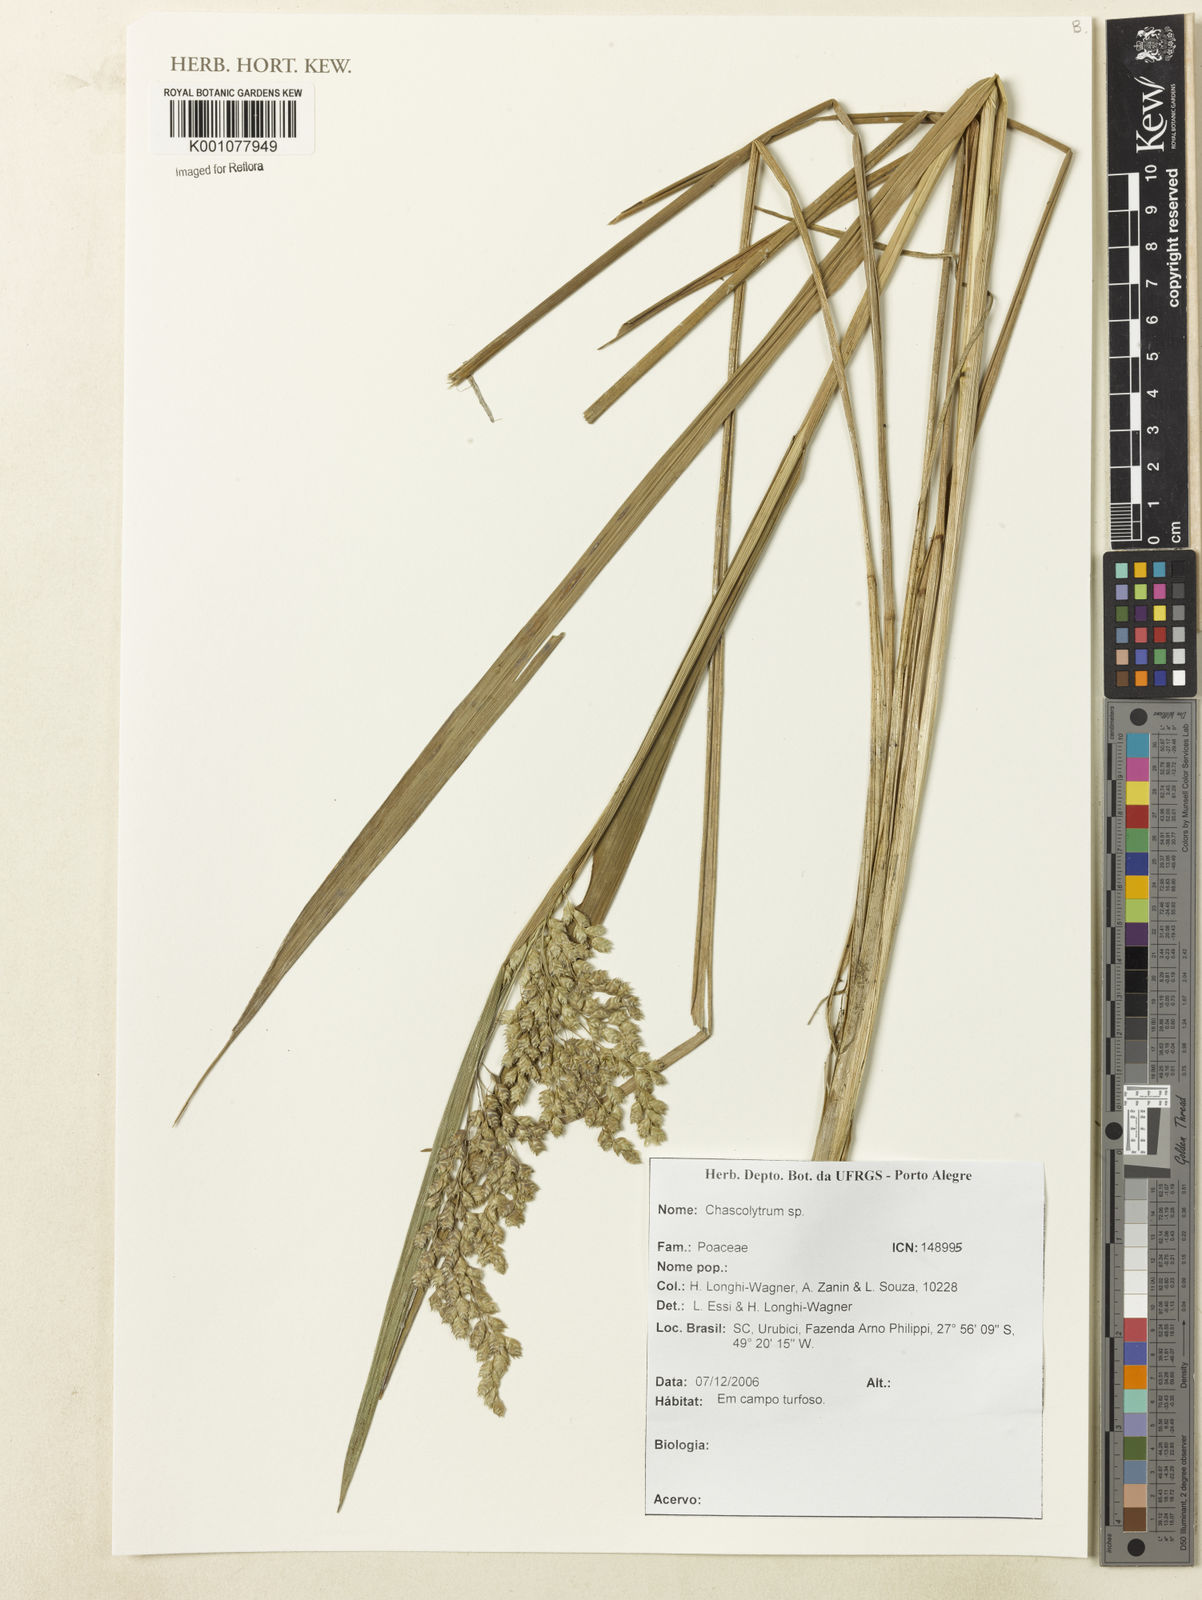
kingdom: Plantae
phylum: Tracheophyta
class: Liliopsida
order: Poales
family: Poaceae
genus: Chascolytrum
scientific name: Chascolytrum latifolium
